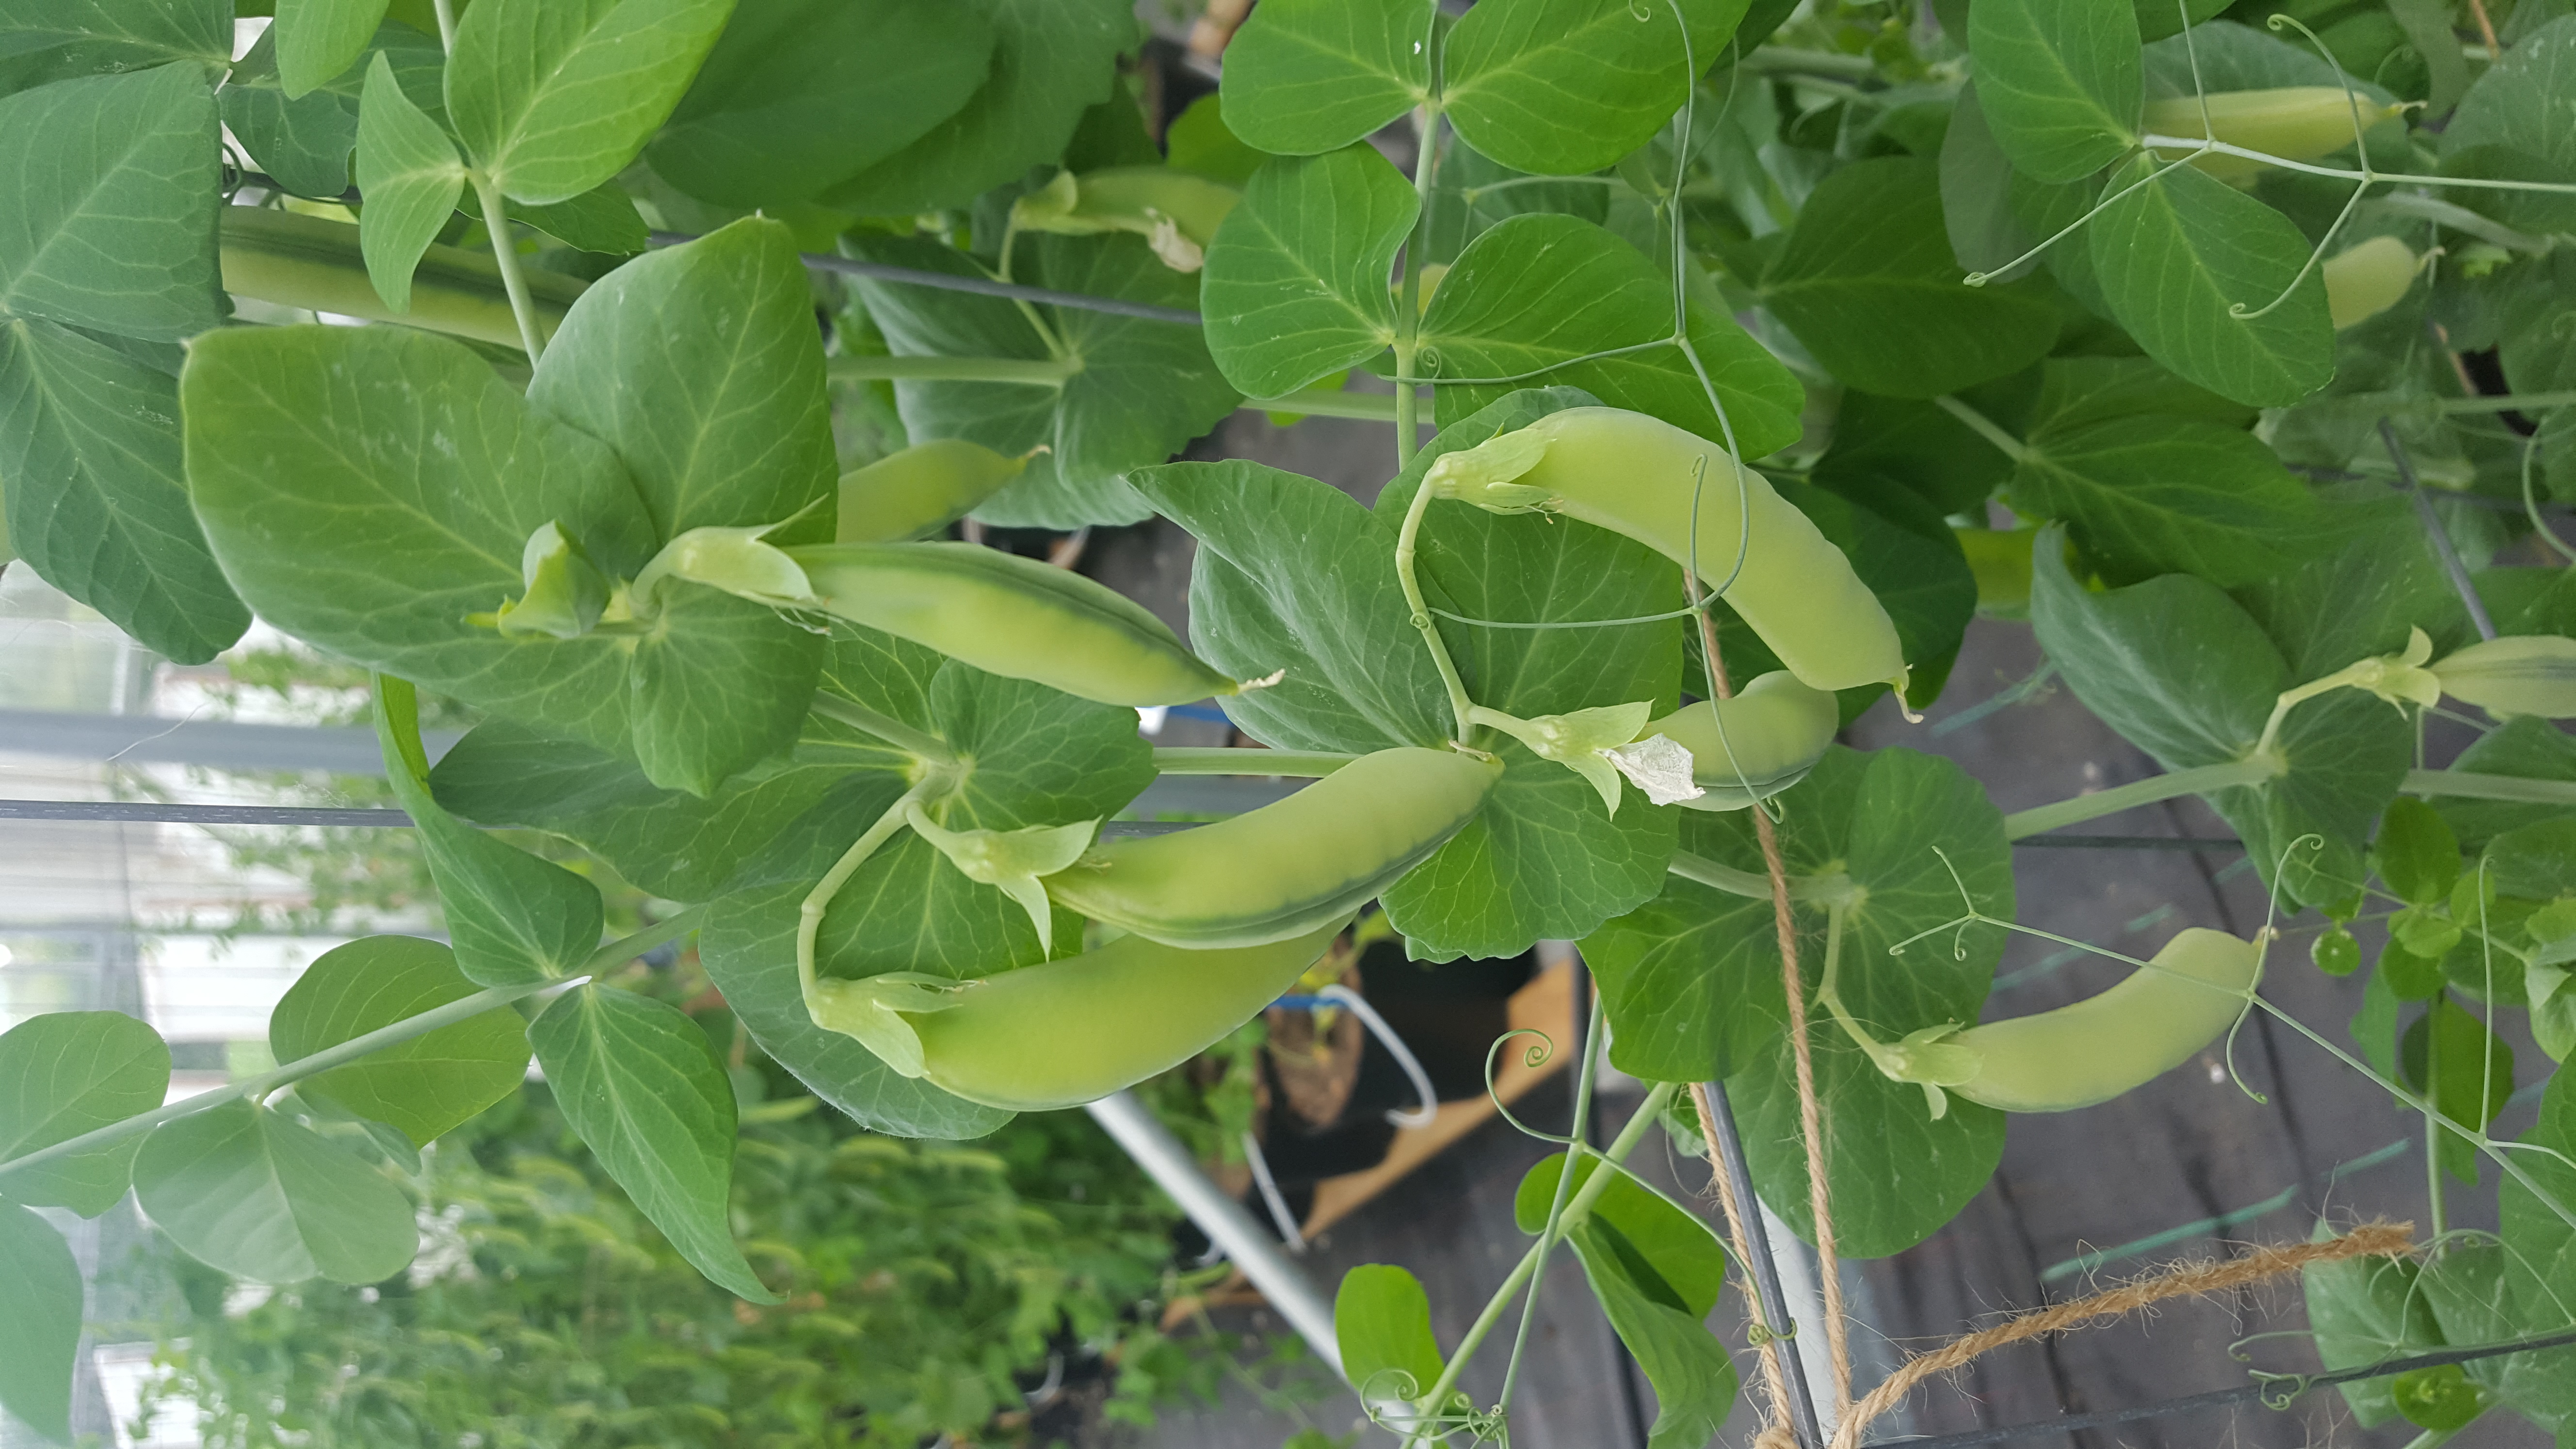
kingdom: Plantae
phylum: Tracheophyta
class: Magnoliopsida
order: Fabales
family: Fabaceae
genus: Lathyrus
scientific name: Lathyrus oleraceus
